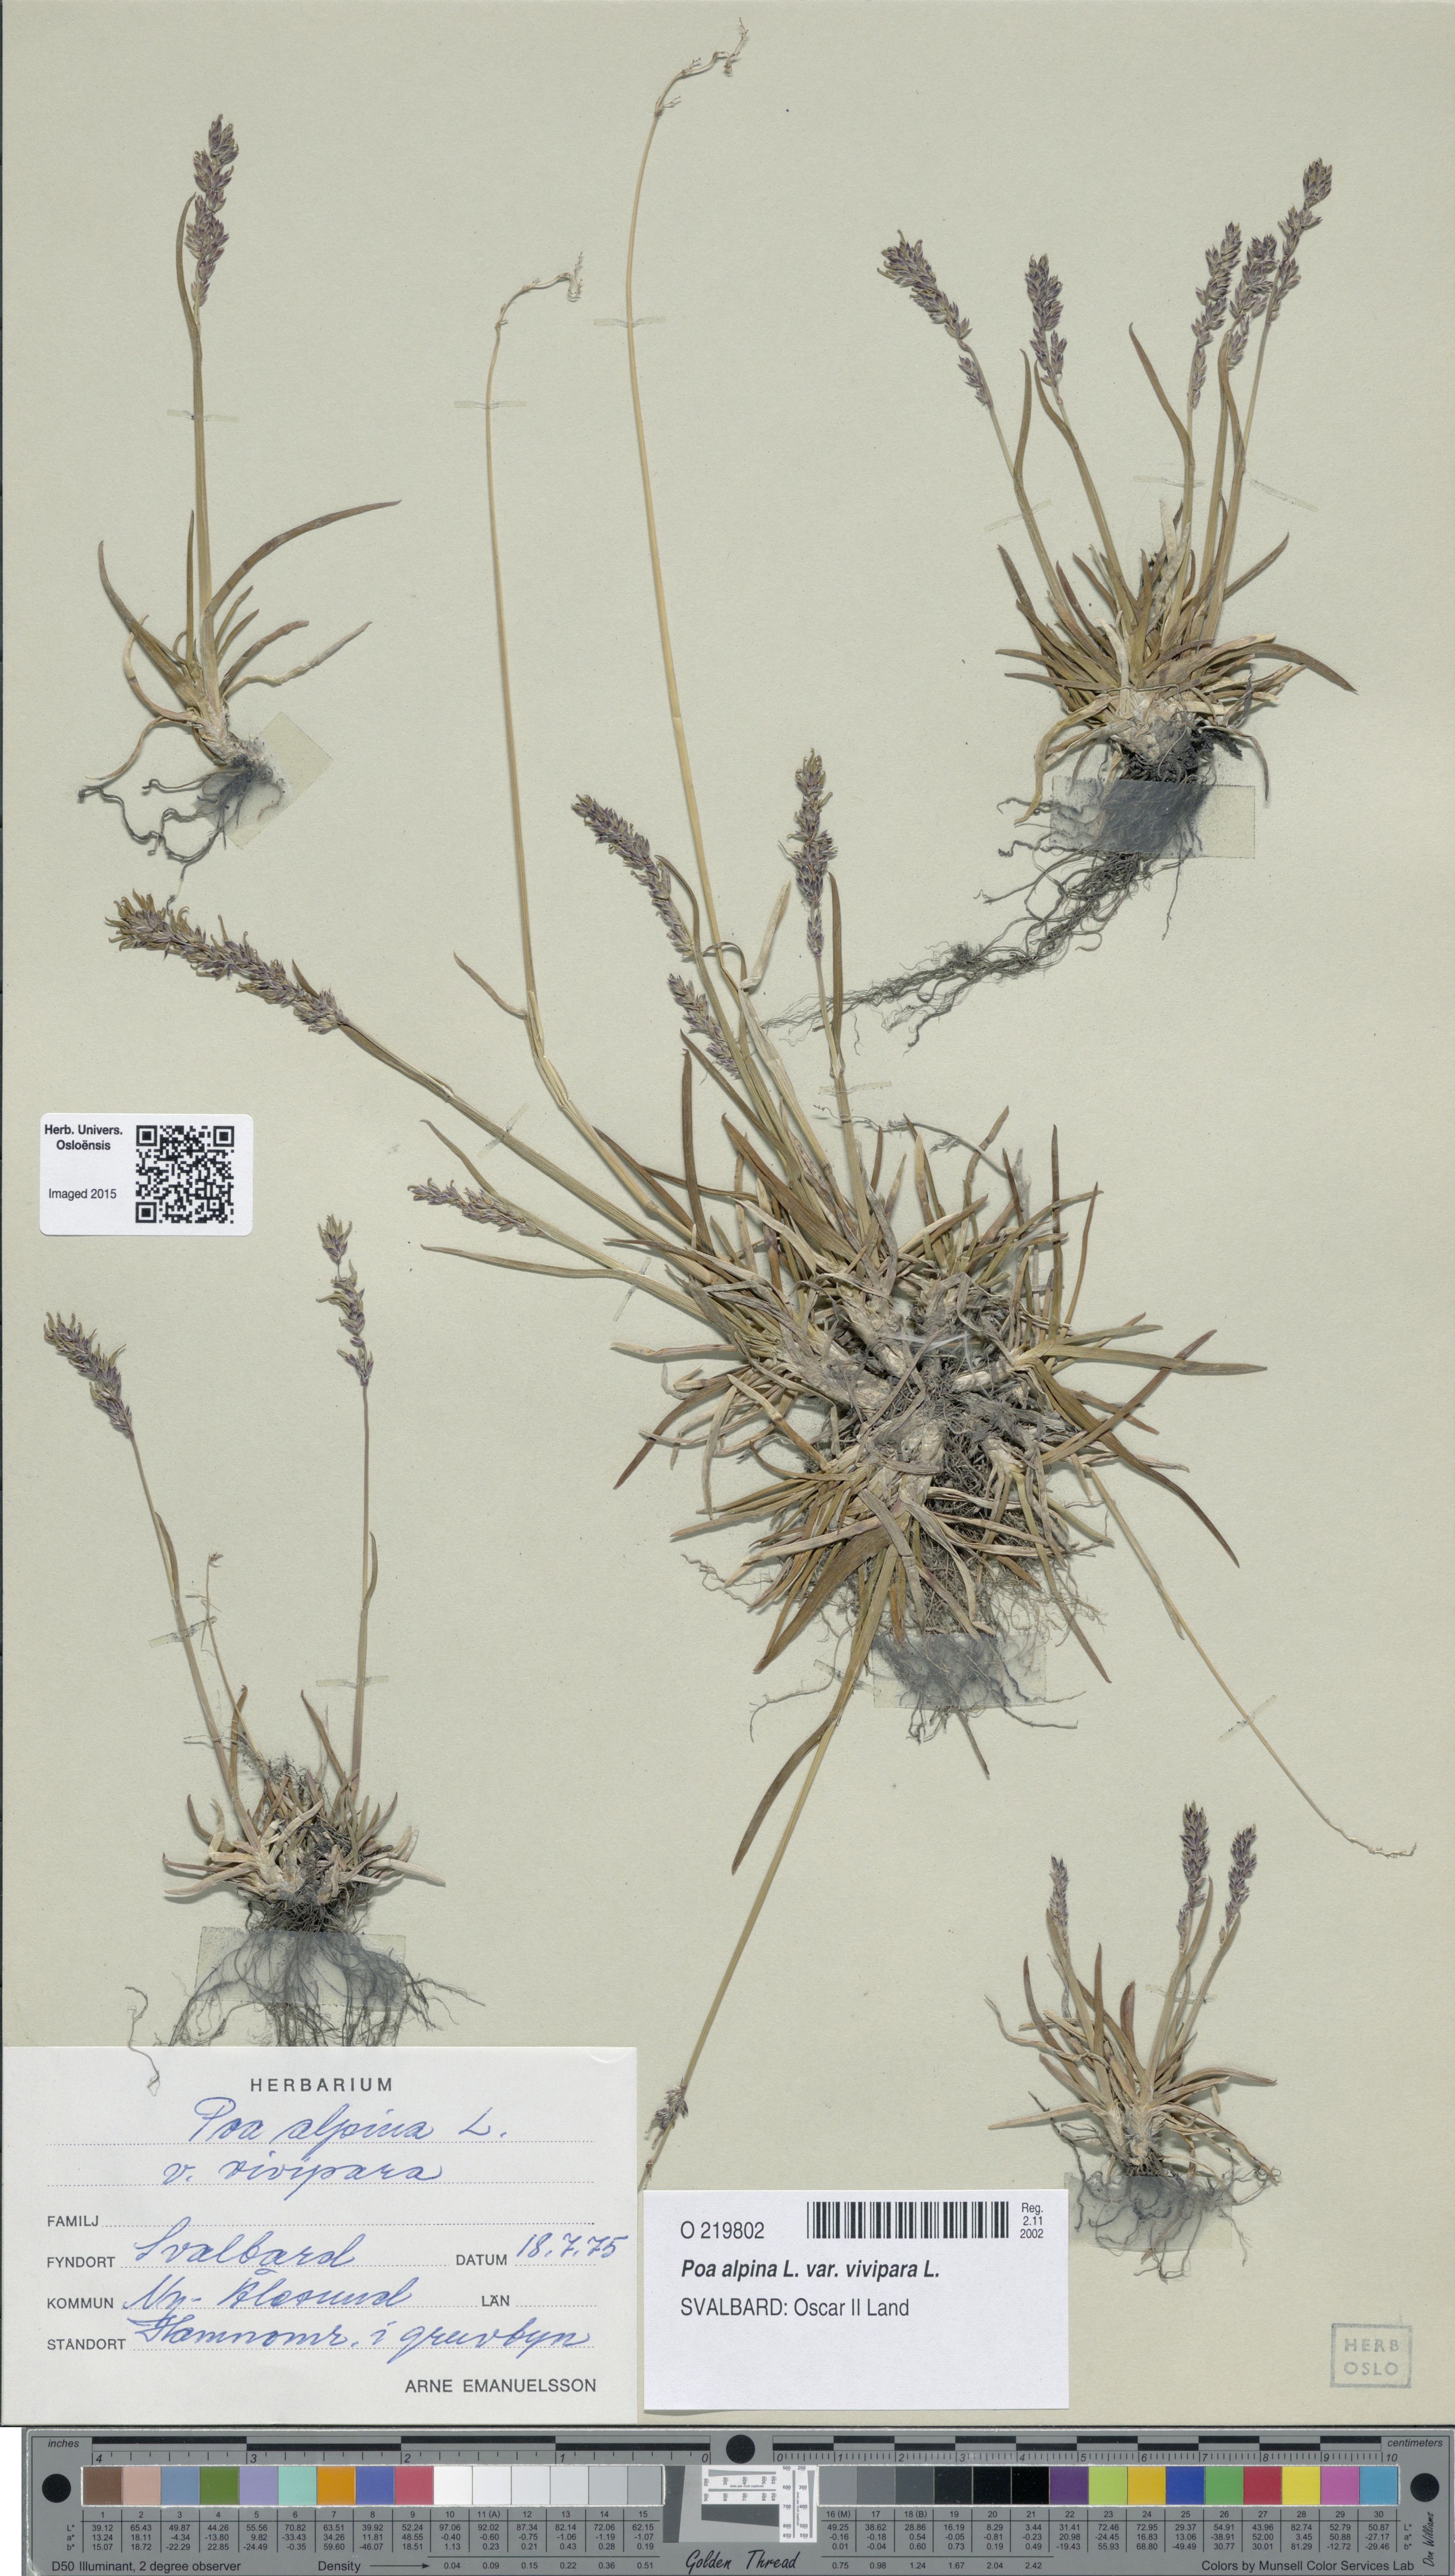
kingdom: Plantae
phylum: Tracheophyta
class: Liliopsida
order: Poales
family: Poaceae
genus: Poa
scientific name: Poa alpina
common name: Alpine bluegrass
